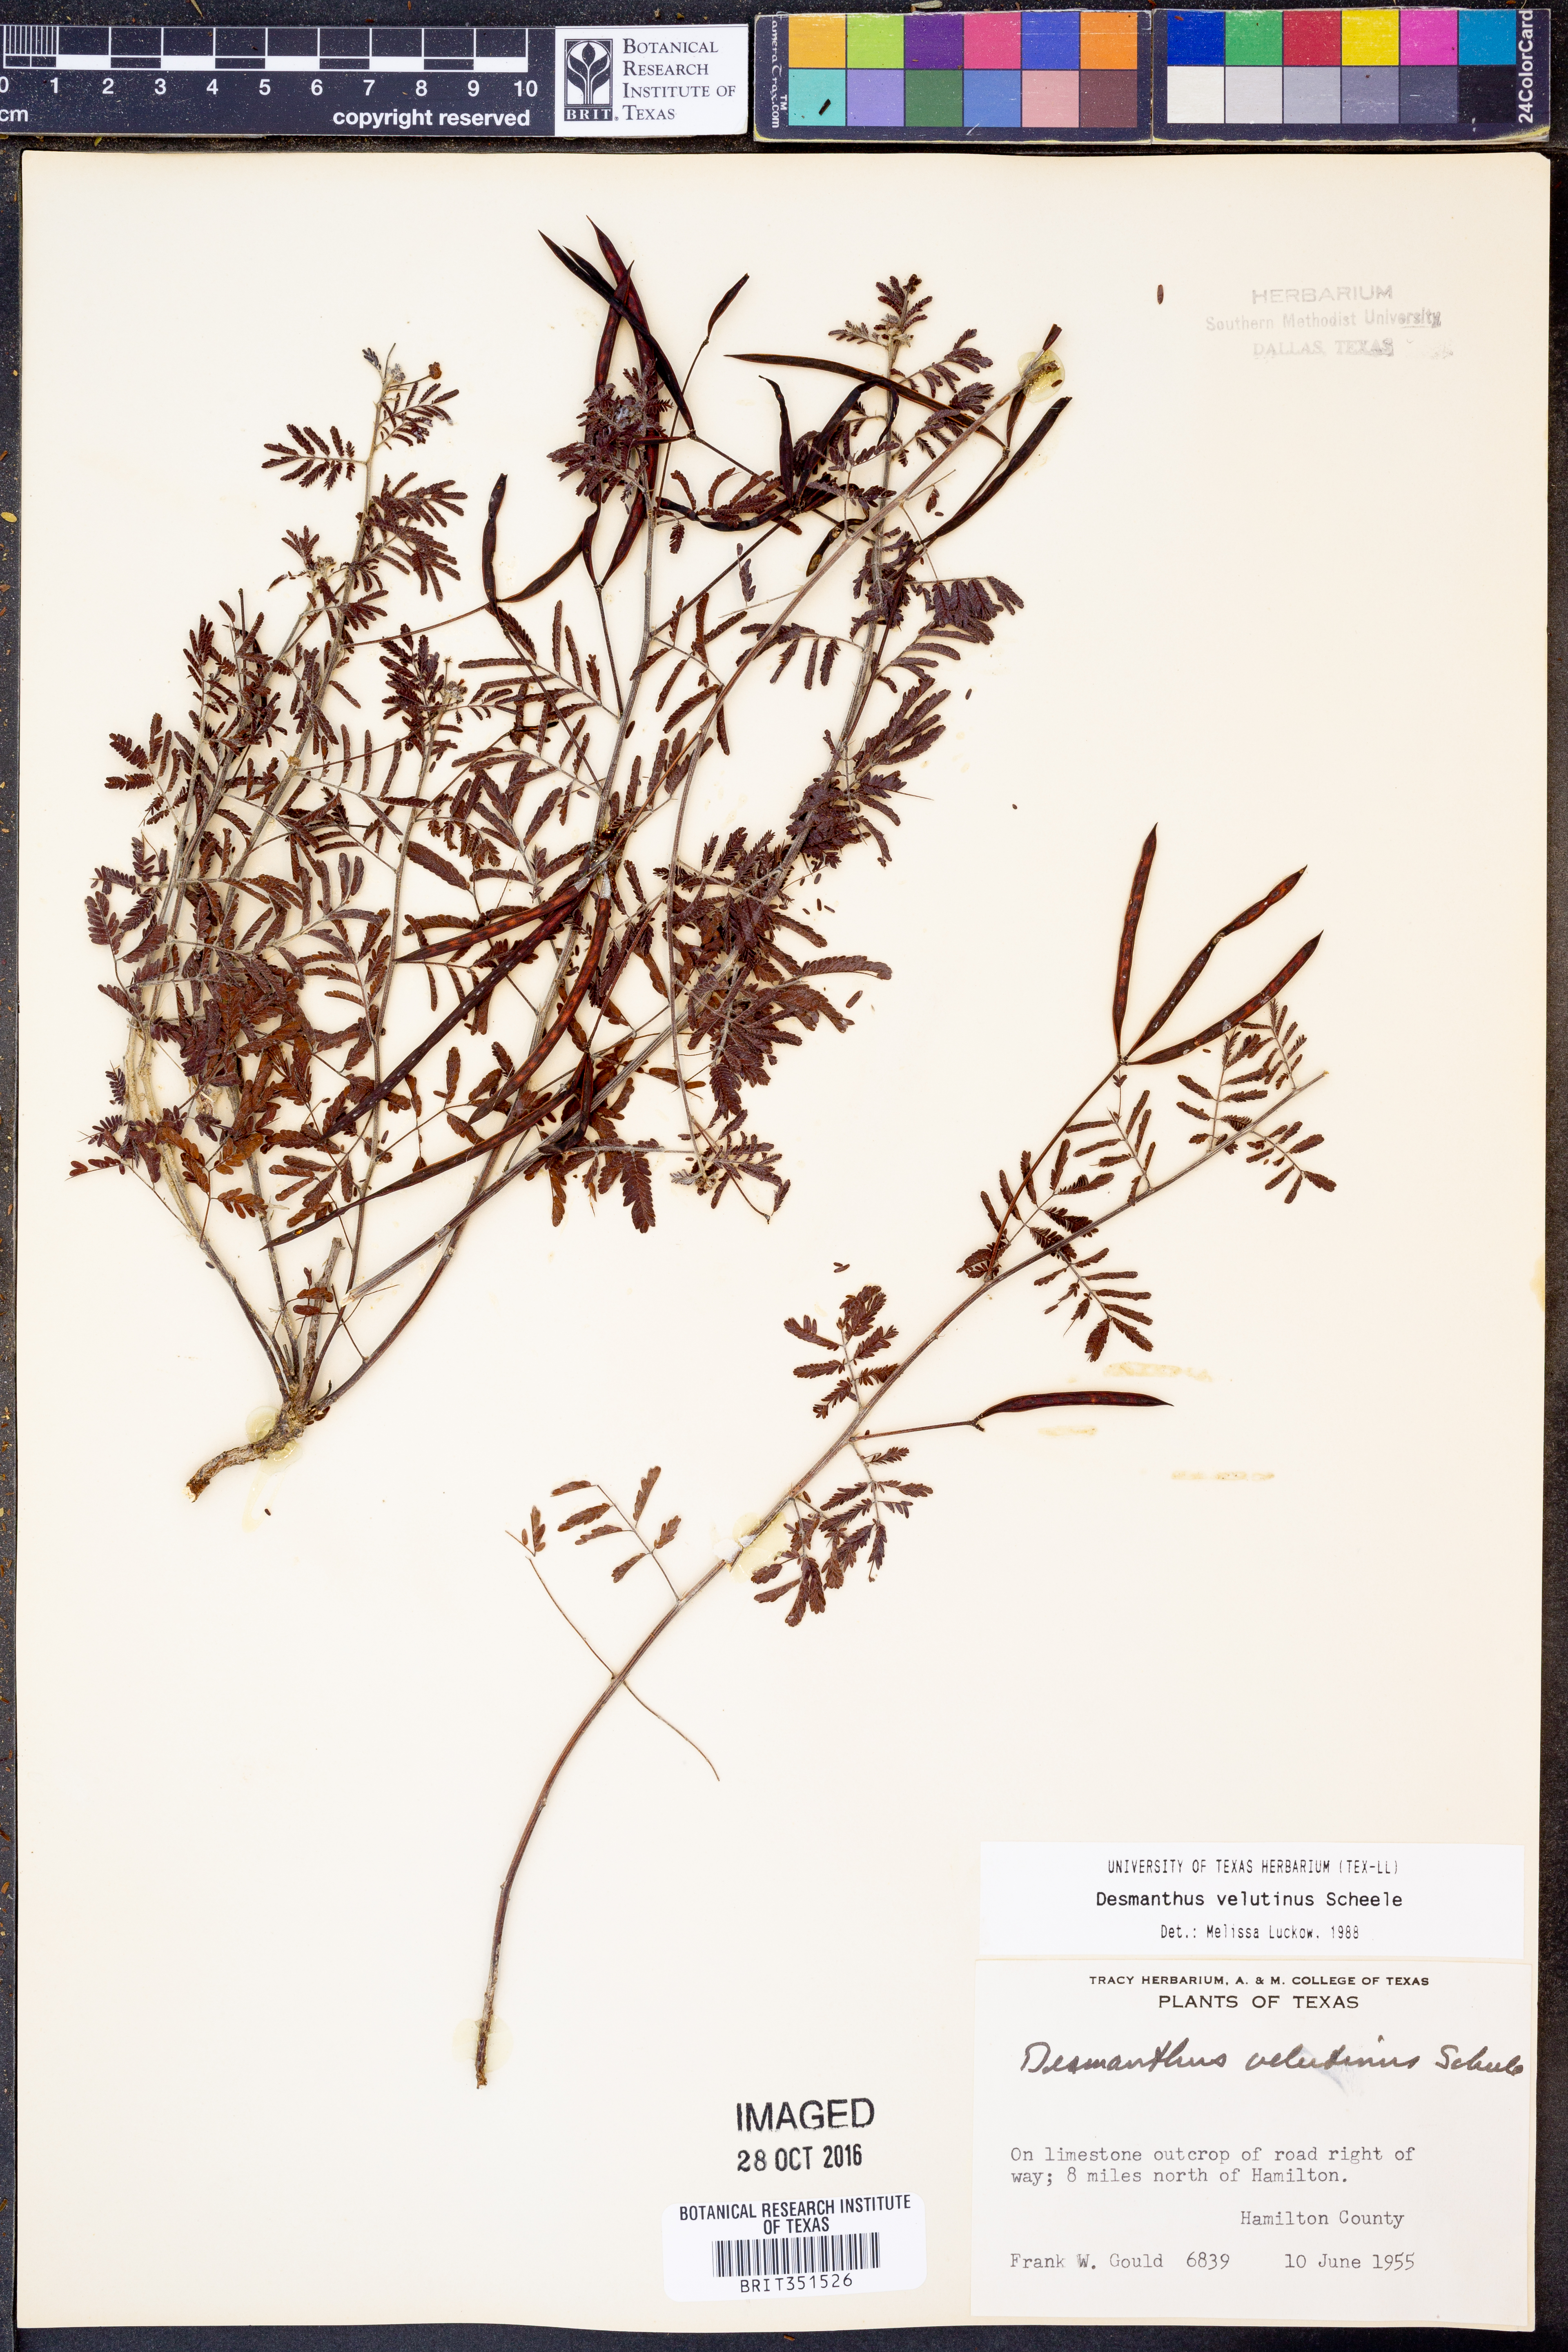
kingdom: Plantae
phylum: Tracheophyta
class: Magnoliopsida
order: Fabales
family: Fabaceae
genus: Desmanthus
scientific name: Desmanthus velutinus
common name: Velvet bundle-flower
